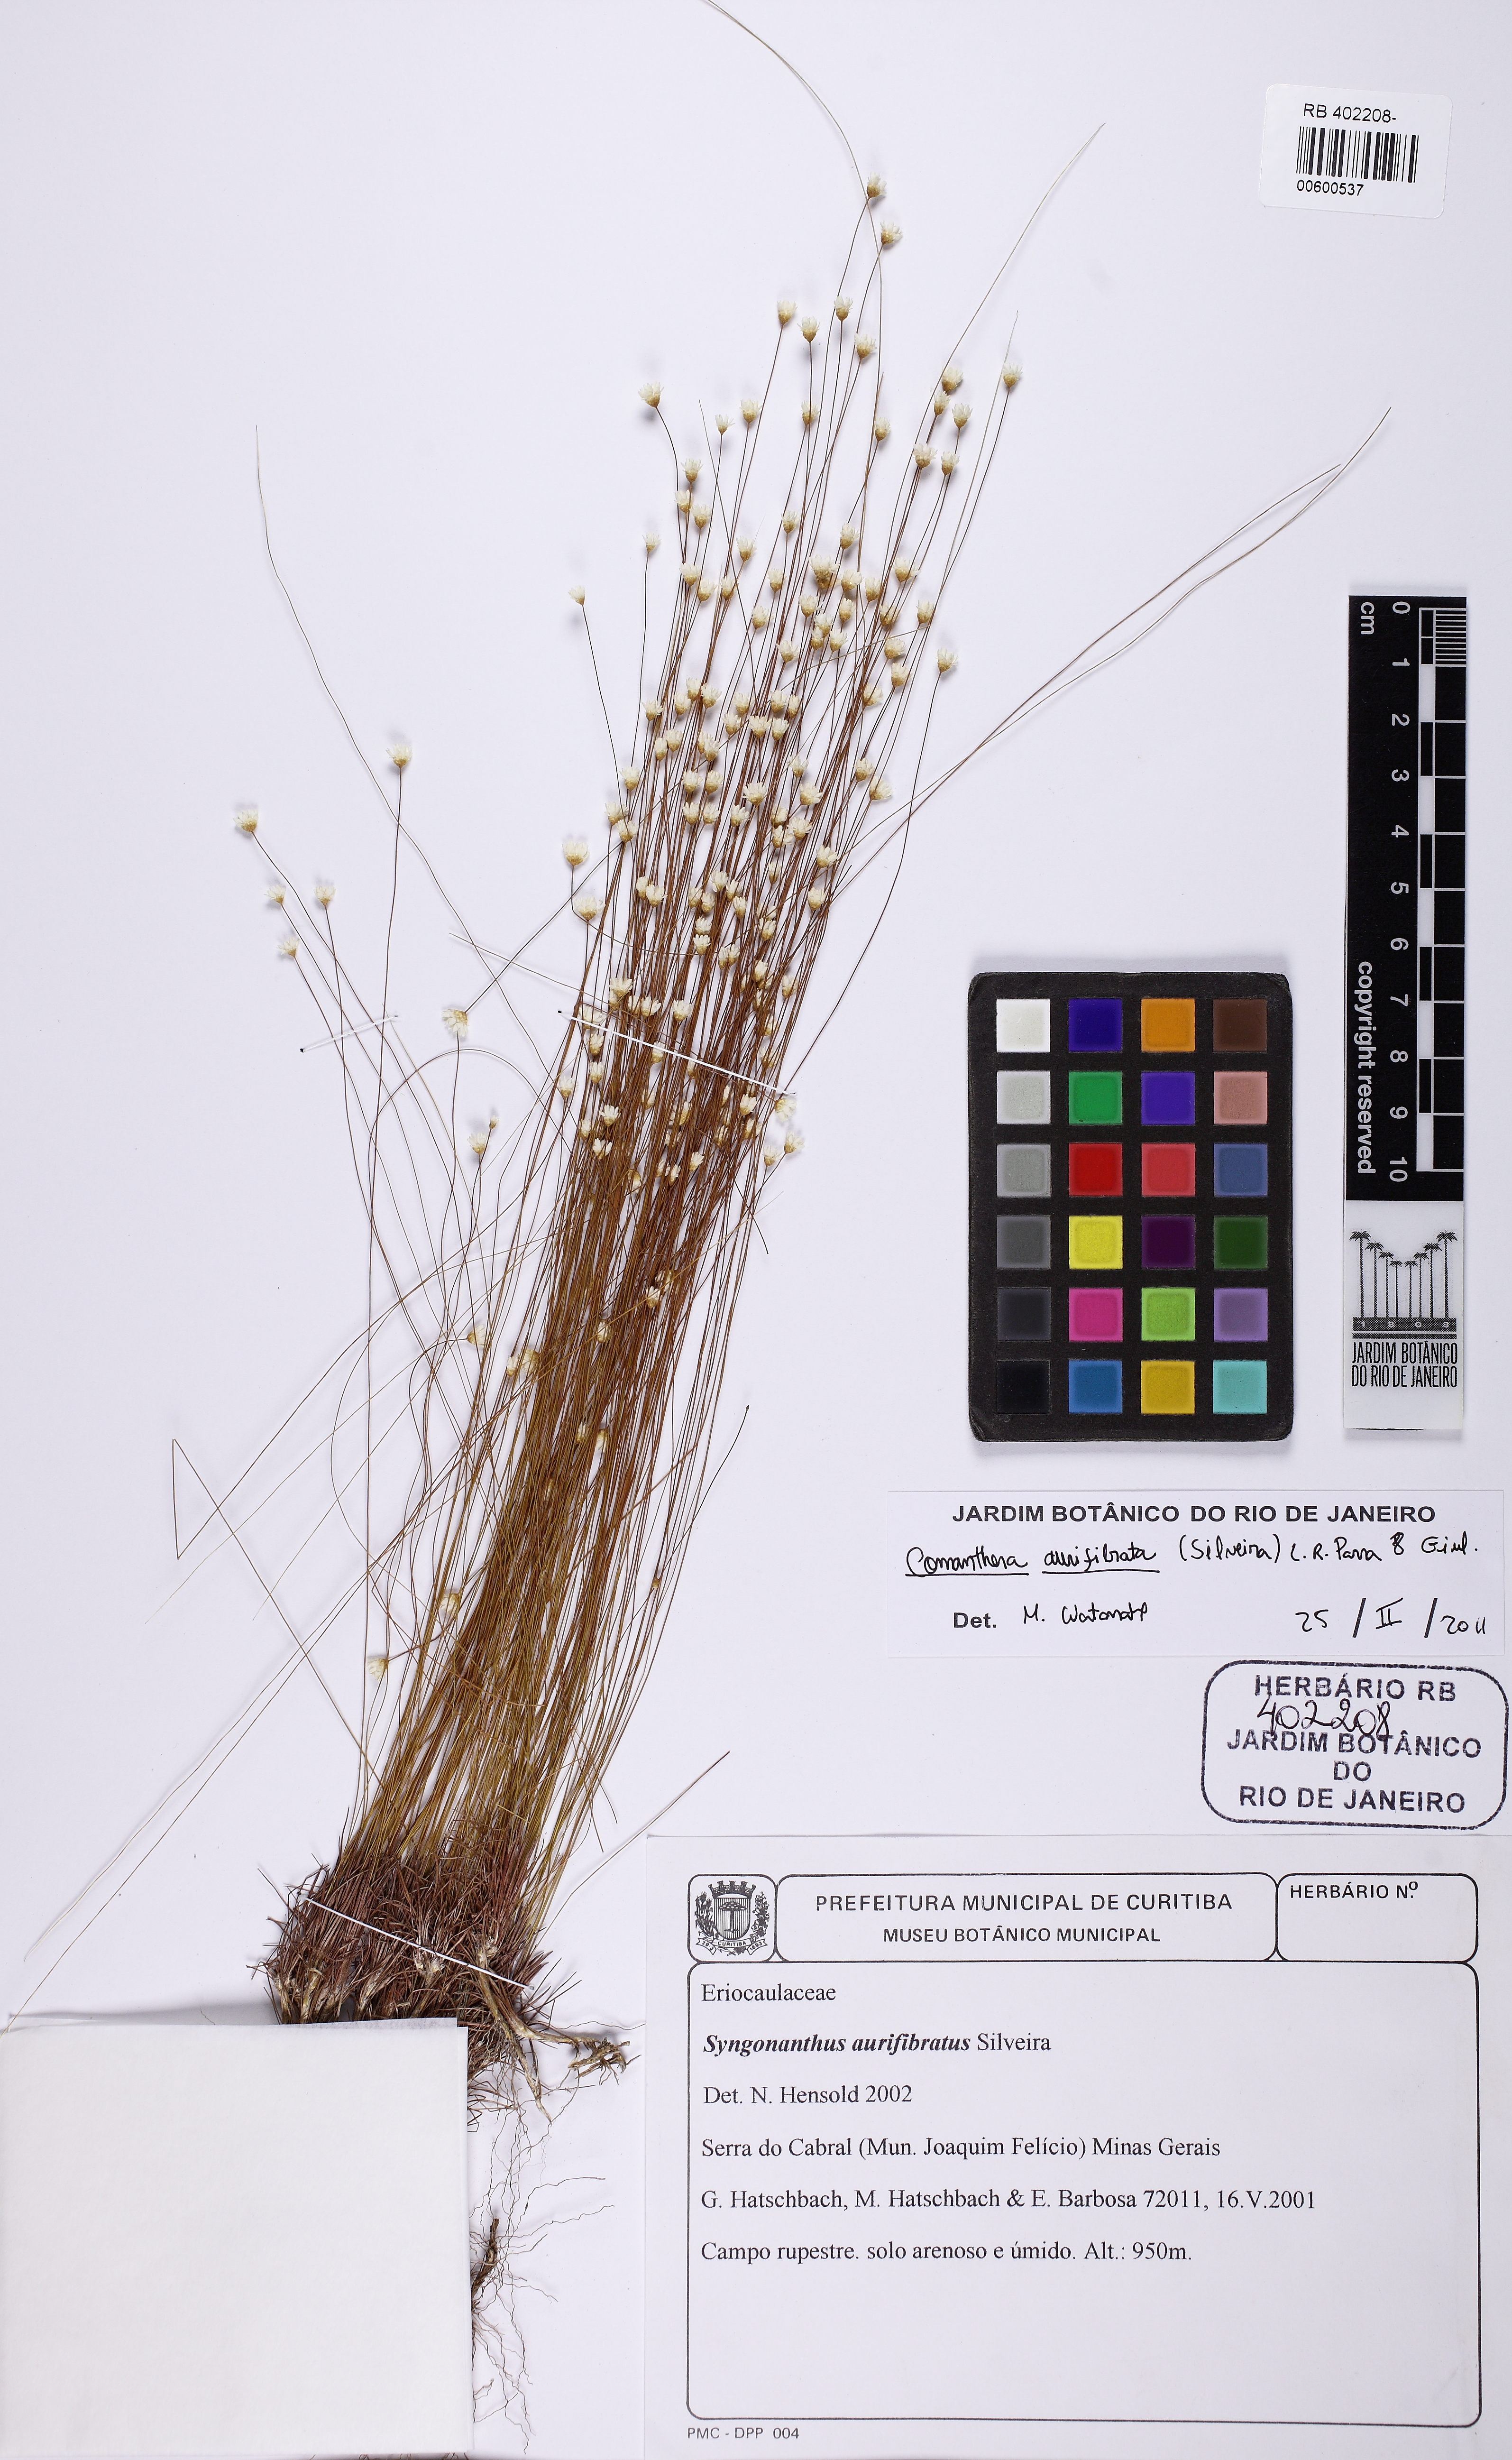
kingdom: Plantae
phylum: Tracheophyta
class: Liliopsida
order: Poales
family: Eriocaulaceae
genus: Comanthera
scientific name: Comanthera aurifibrata
